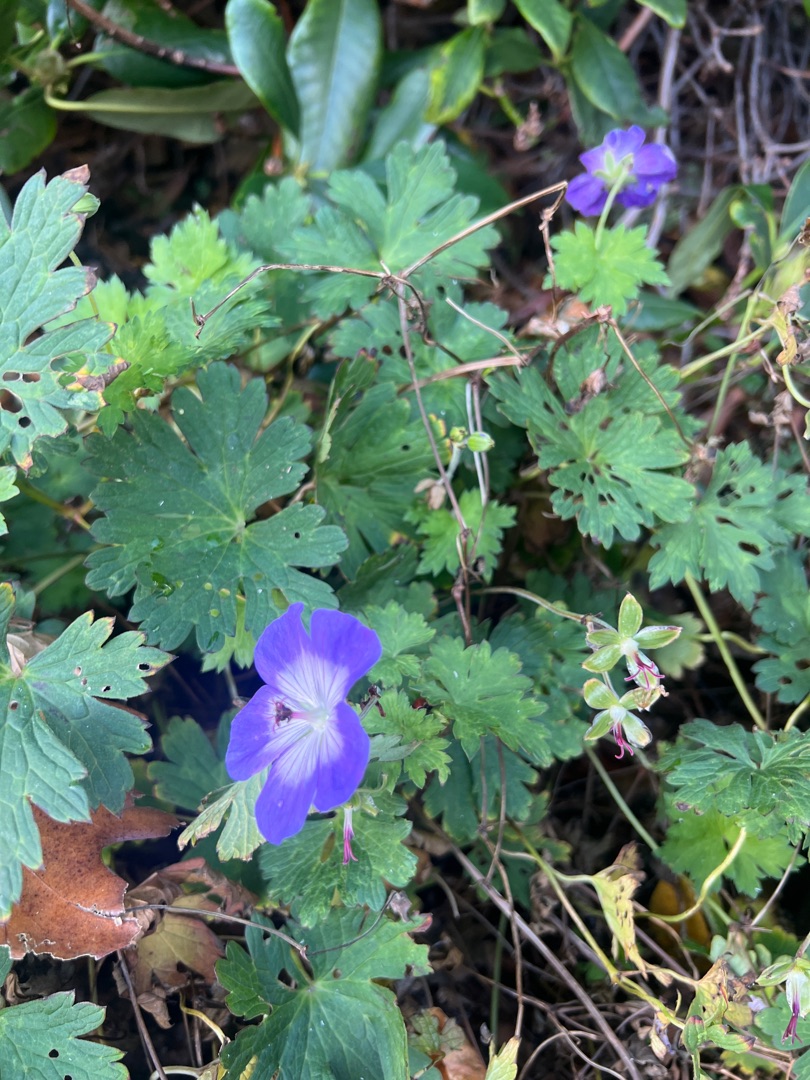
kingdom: Plantae
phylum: Tracheophyta
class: Magnoliopsida
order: Geraniales
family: Geraniaceae
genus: Geranium
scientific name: Geranium
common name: Storkenæbslægten
